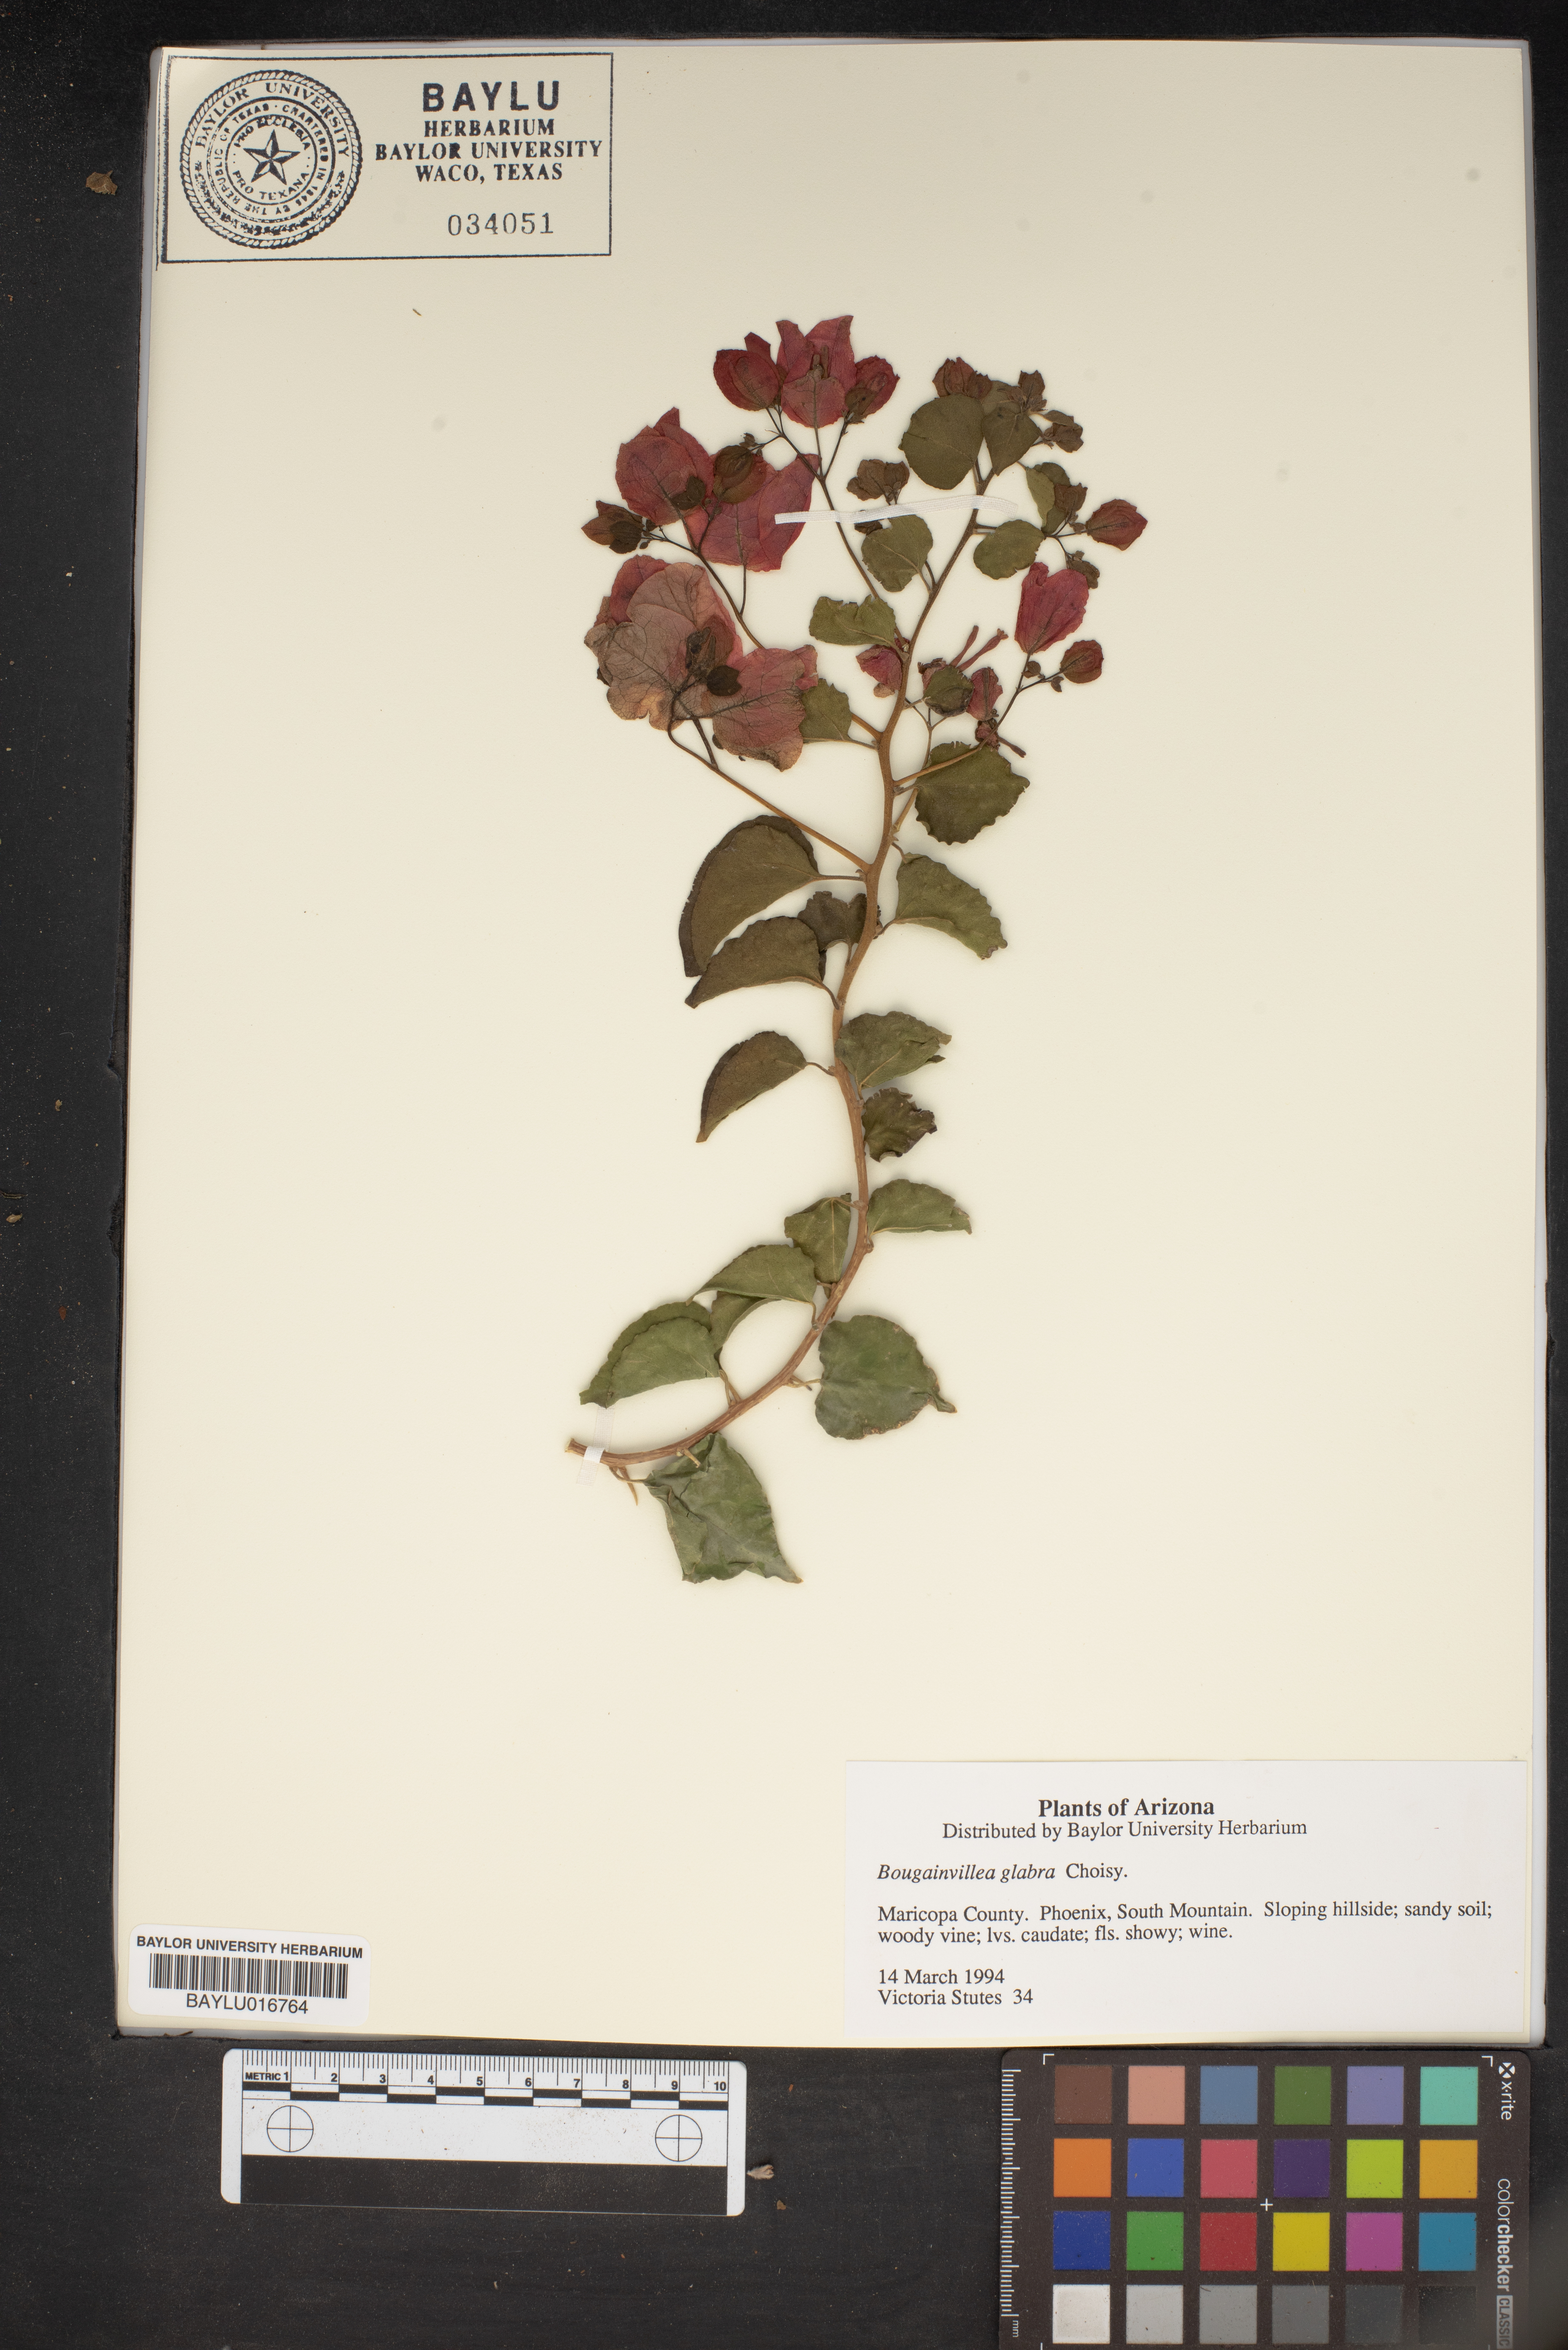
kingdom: Plantae
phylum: Tracheophyta
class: Magnoliopsida
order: Caryophyllales
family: Nyctaginaceae
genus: Bougainvillea
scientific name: Bougainvillea glabra
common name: Paperflower
